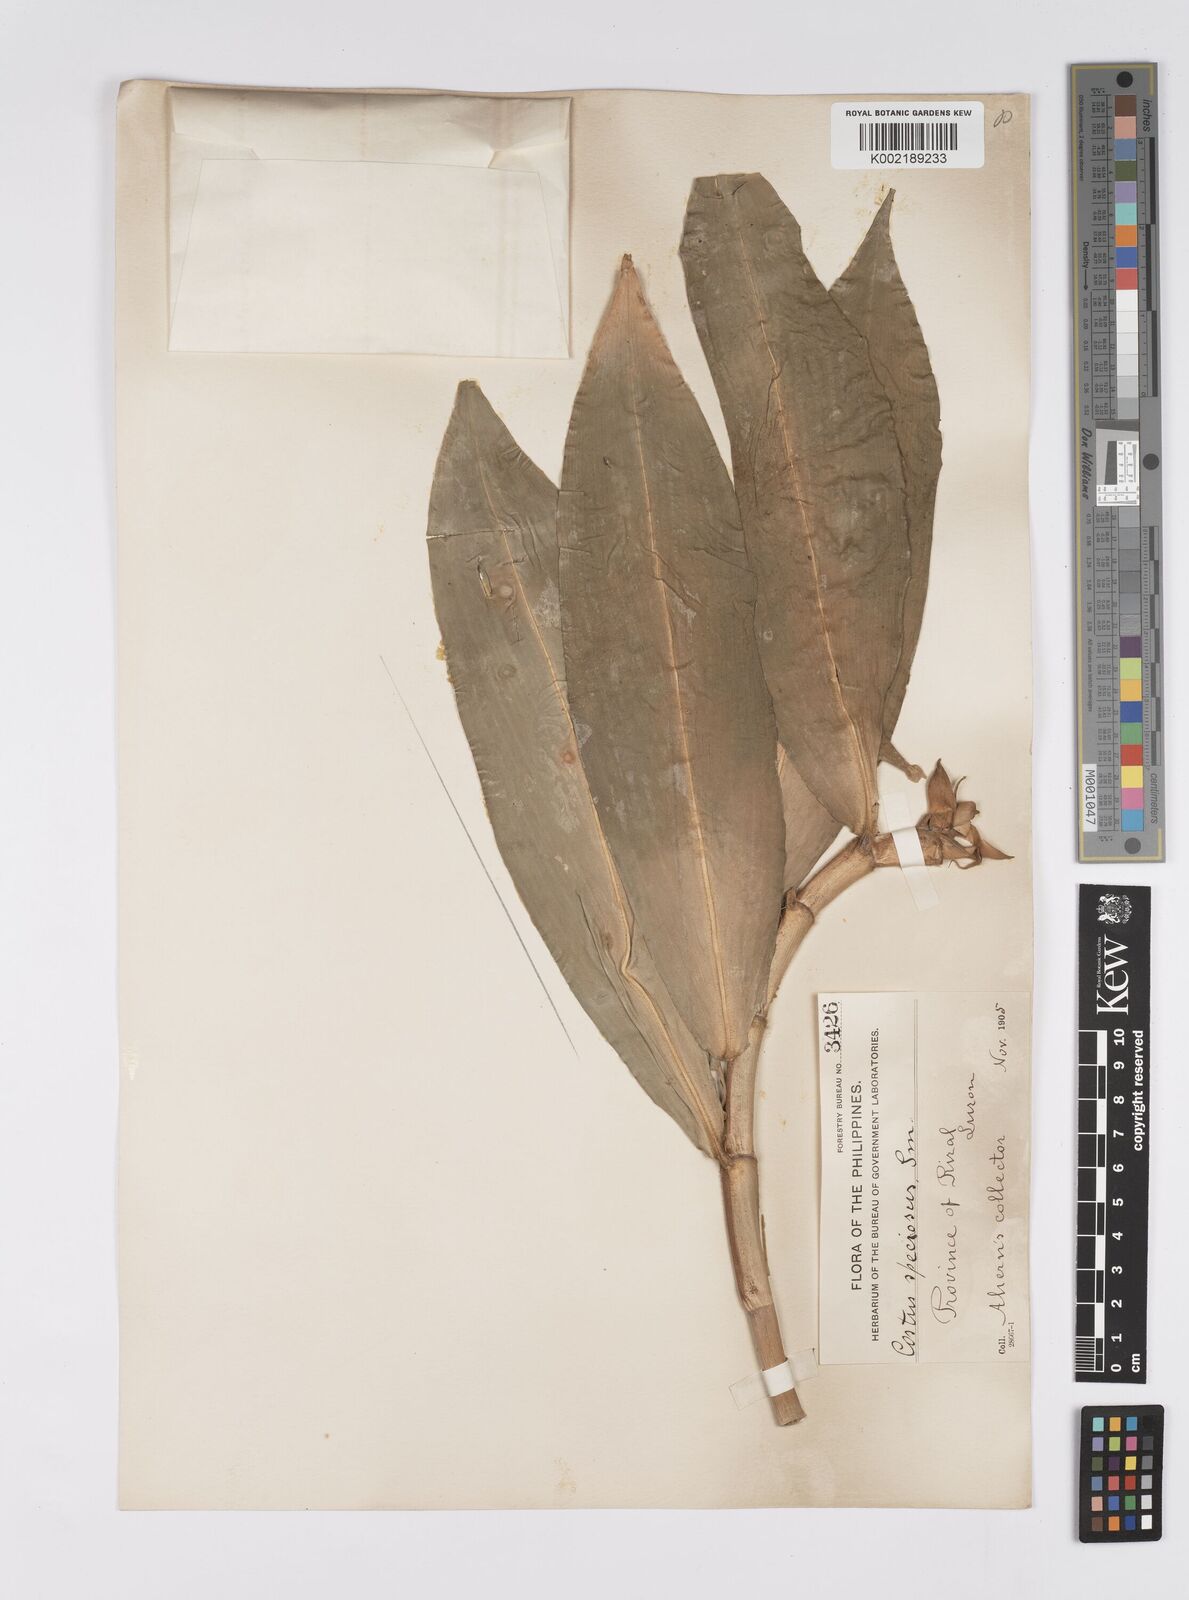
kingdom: Plantae
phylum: Tracheophyta
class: Liliopsida
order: Zingiberales
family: Costaceae
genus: Hellenia
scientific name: Hellenia speciosa
